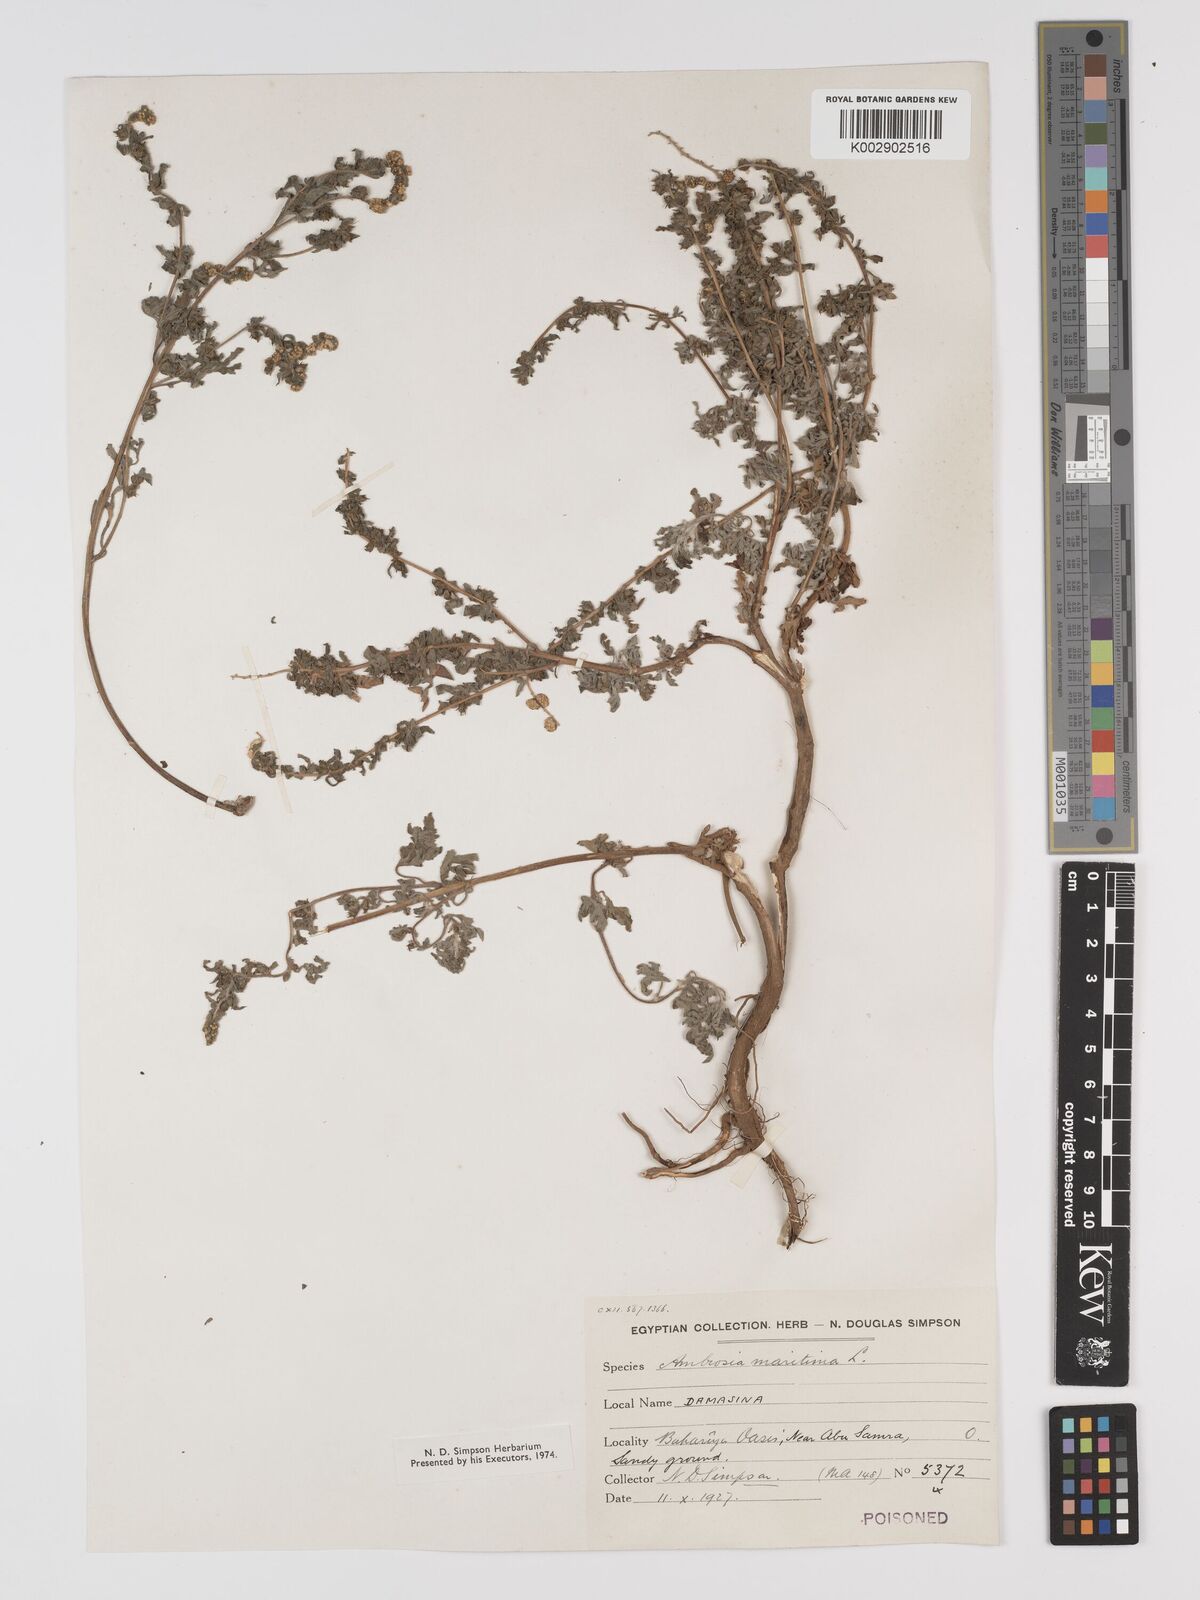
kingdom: Plantae
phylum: Tracheophyta
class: Magnoliopsida
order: Asterales
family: Asteraceae
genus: Ambrosia
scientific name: Ambrosia maritima
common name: Sea ambrosia
